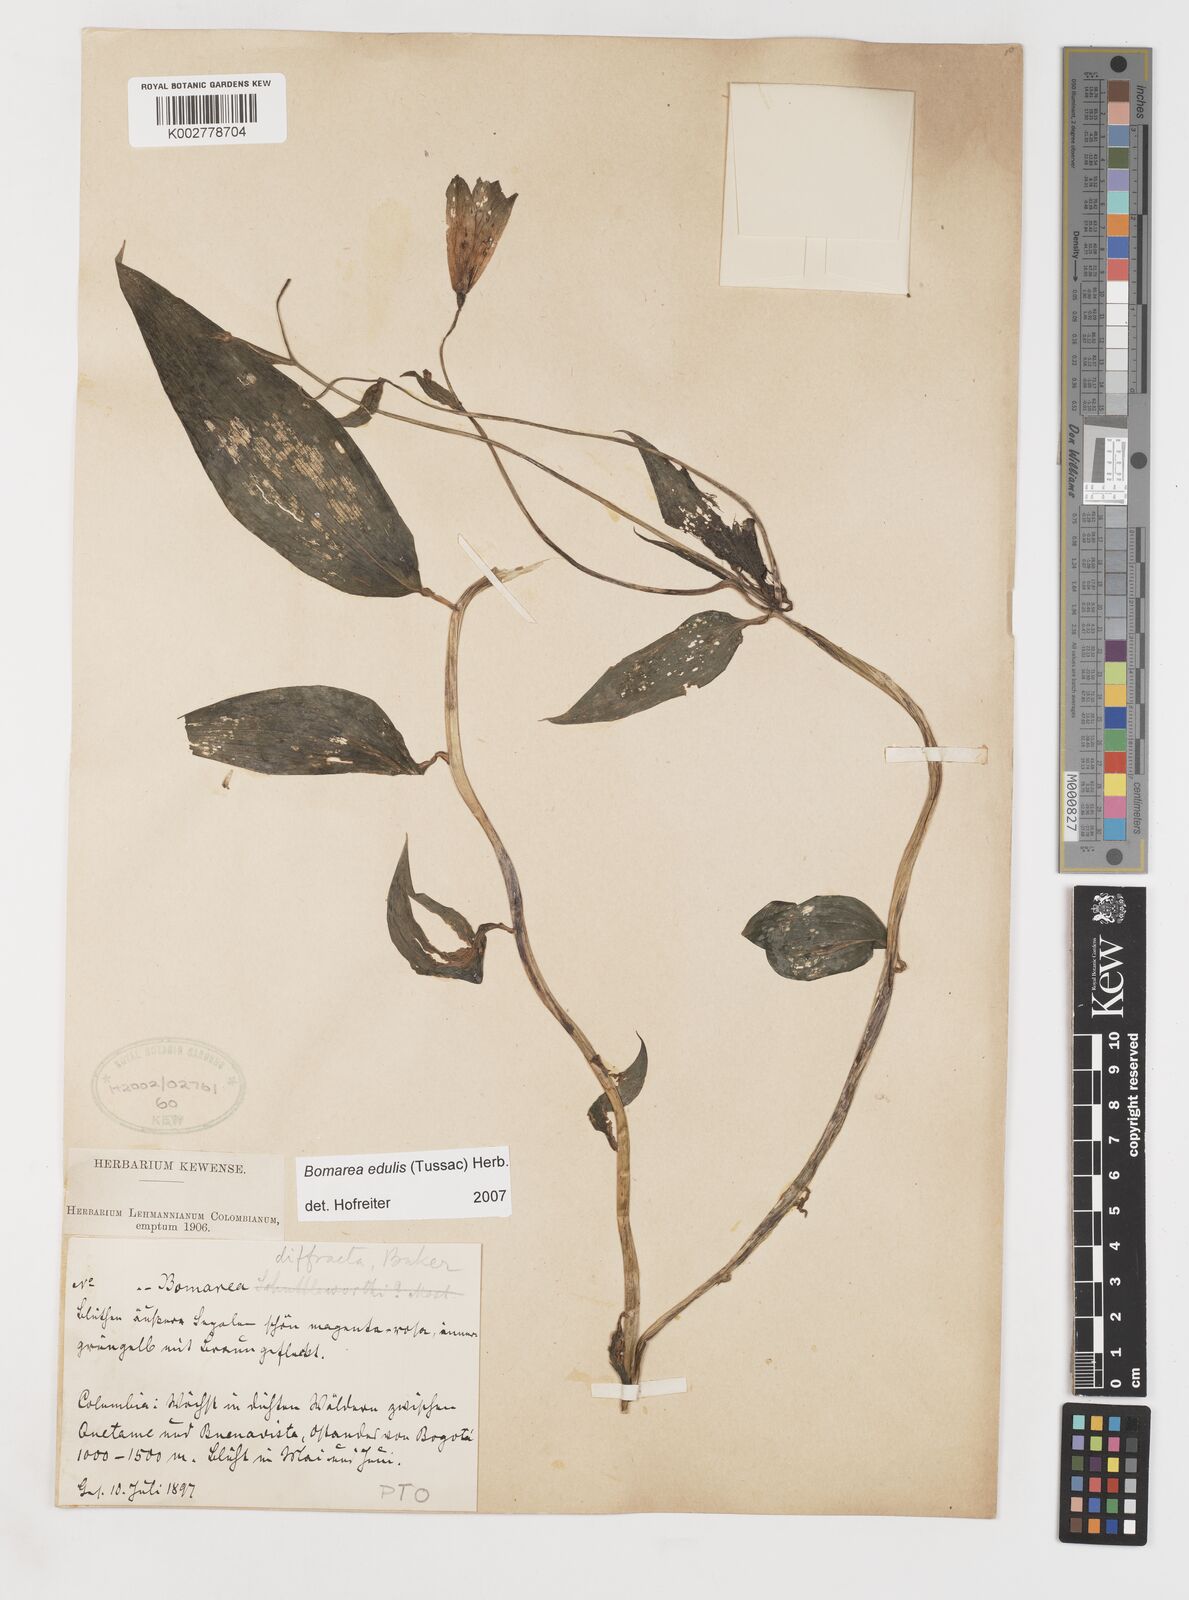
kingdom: Plantae
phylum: Tracheophyta
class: Liliopsida
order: Liliales
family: Alstroemeriaceae
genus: Bomarea
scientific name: Bomarea edulis
